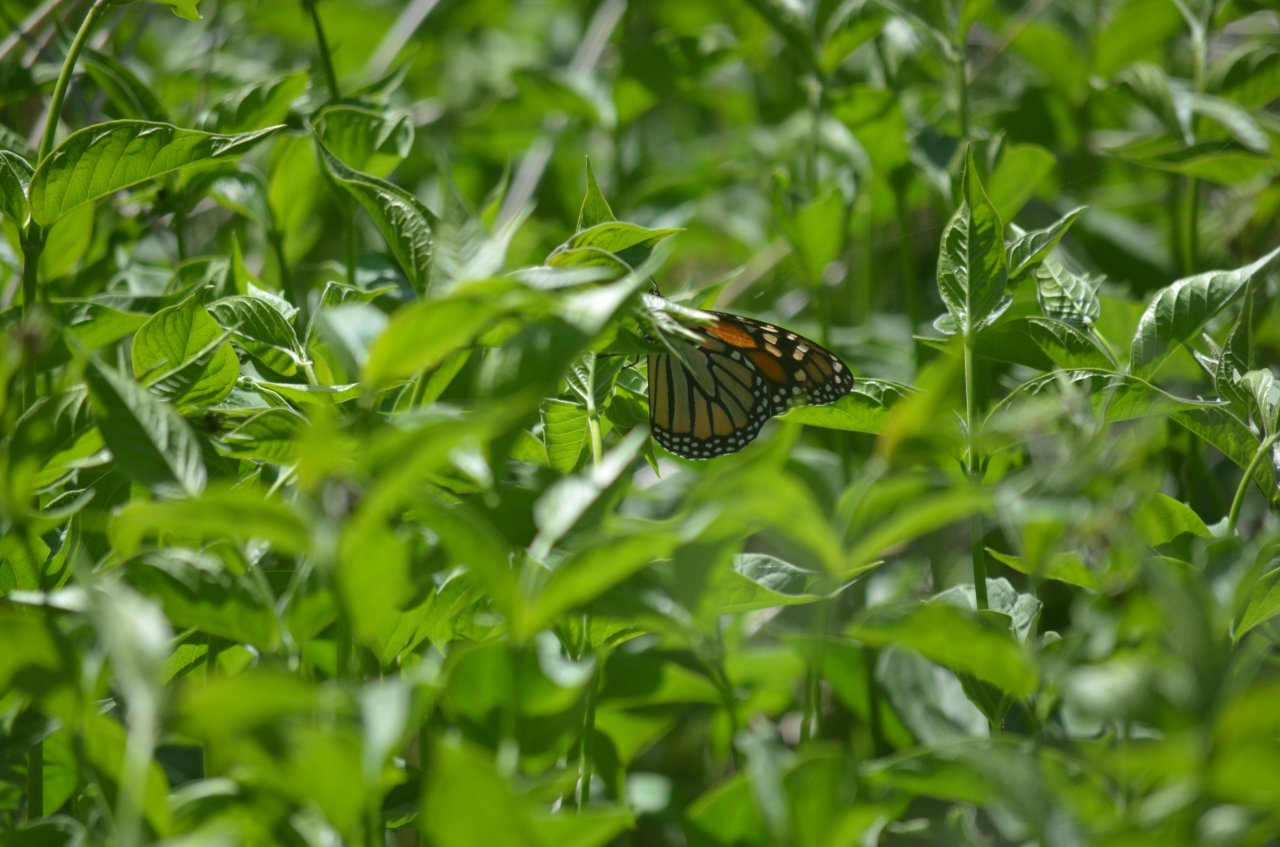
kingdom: Animalia
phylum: Arthropoda
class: Insecta
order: Lepidoptera
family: Nymphalidae
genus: Danaus
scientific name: Danaus plexippus
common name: Monarch
